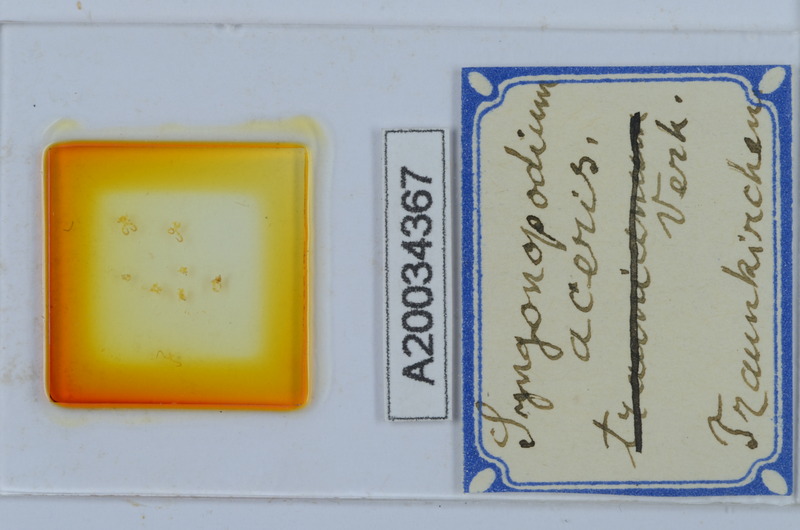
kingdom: Animalia
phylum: Arthropoda
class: Diplopoda
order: Chordeumatida
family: Attemsiidae
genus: Syngonopodium
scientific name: Syngonopodium aceris
